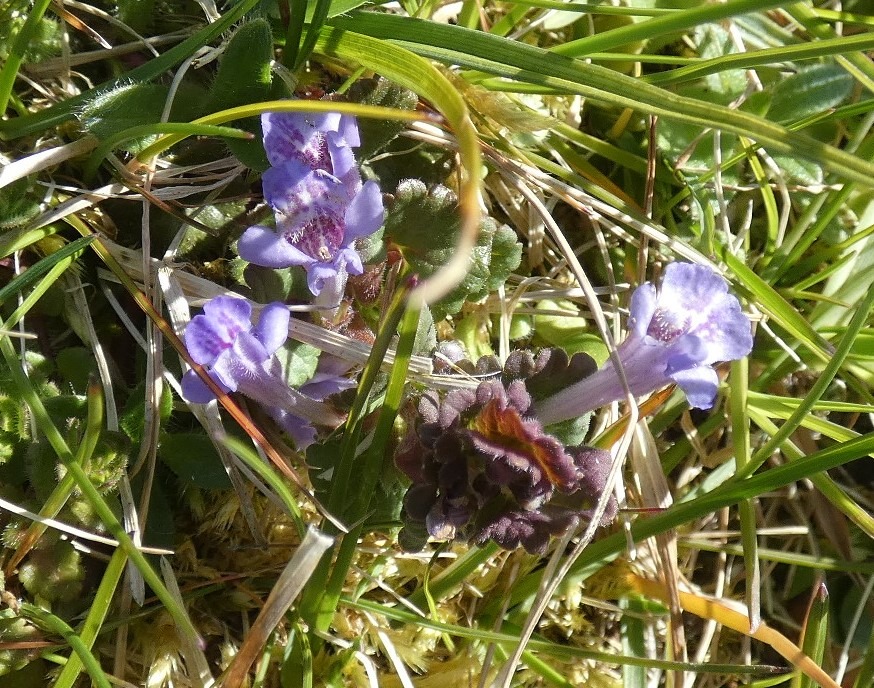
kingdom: Plantae
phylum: Tracheophyta
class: Magnoliopsida
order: Lamiales
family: Lamiaceae
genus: Glechoma
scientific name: Glechoma hederacea
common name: Korsknap
